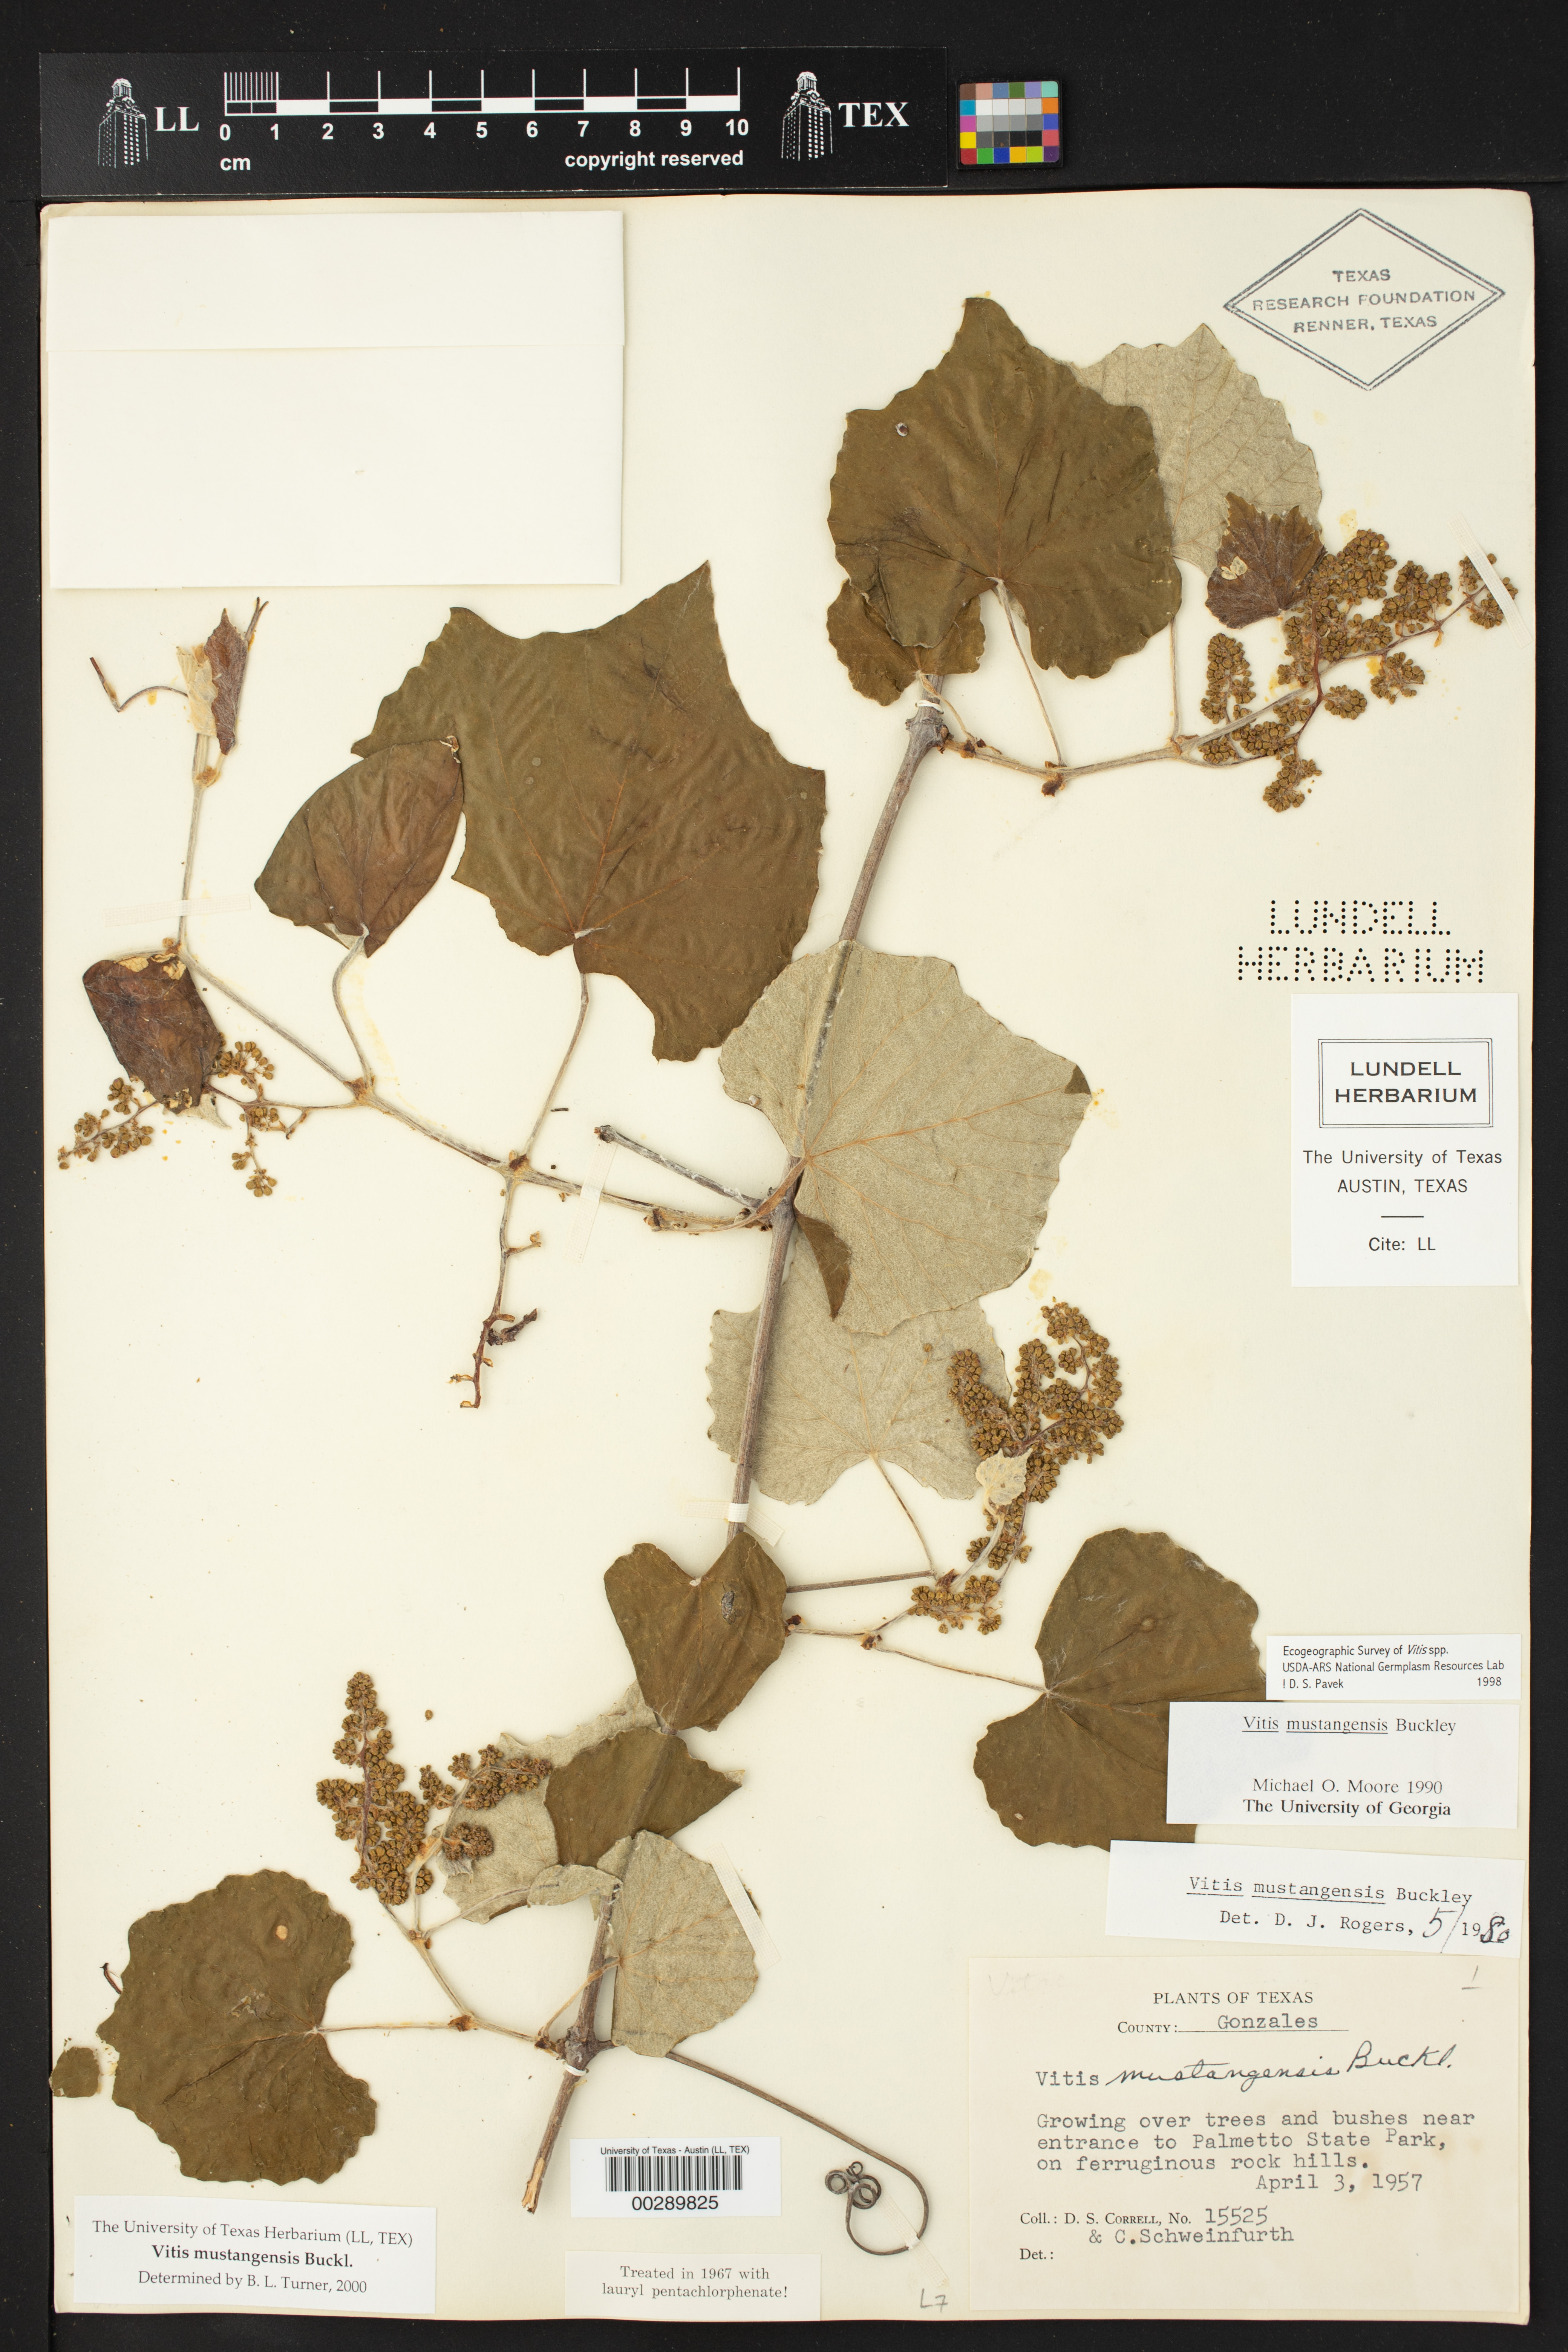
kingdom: Plantae
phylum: Tracheophyta
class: Magnoliopsida
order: Vitales
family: Vitaceae
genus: Vitis
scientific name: Vitis mustangensis
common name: Mustang grape
